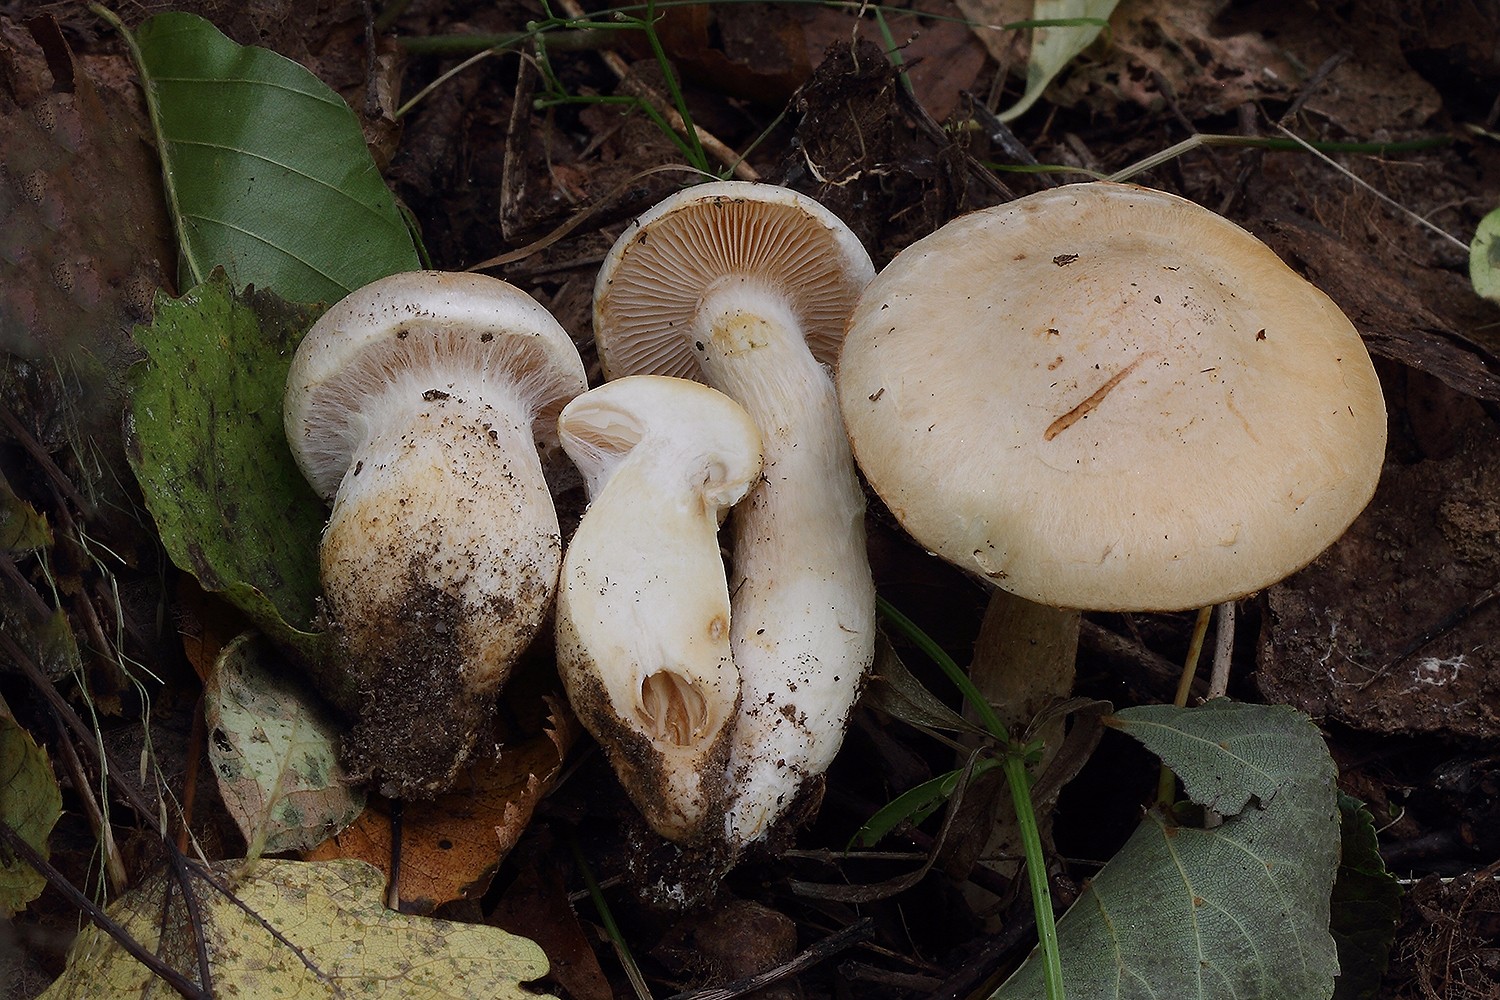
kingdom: Fungi
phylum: Basidiomycota
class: Agaricomycetes
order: Agaricales
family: Cortinariaceae
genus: Phlegmacium
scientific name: Phlegmacium argutum
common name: hvidlig slørhat
